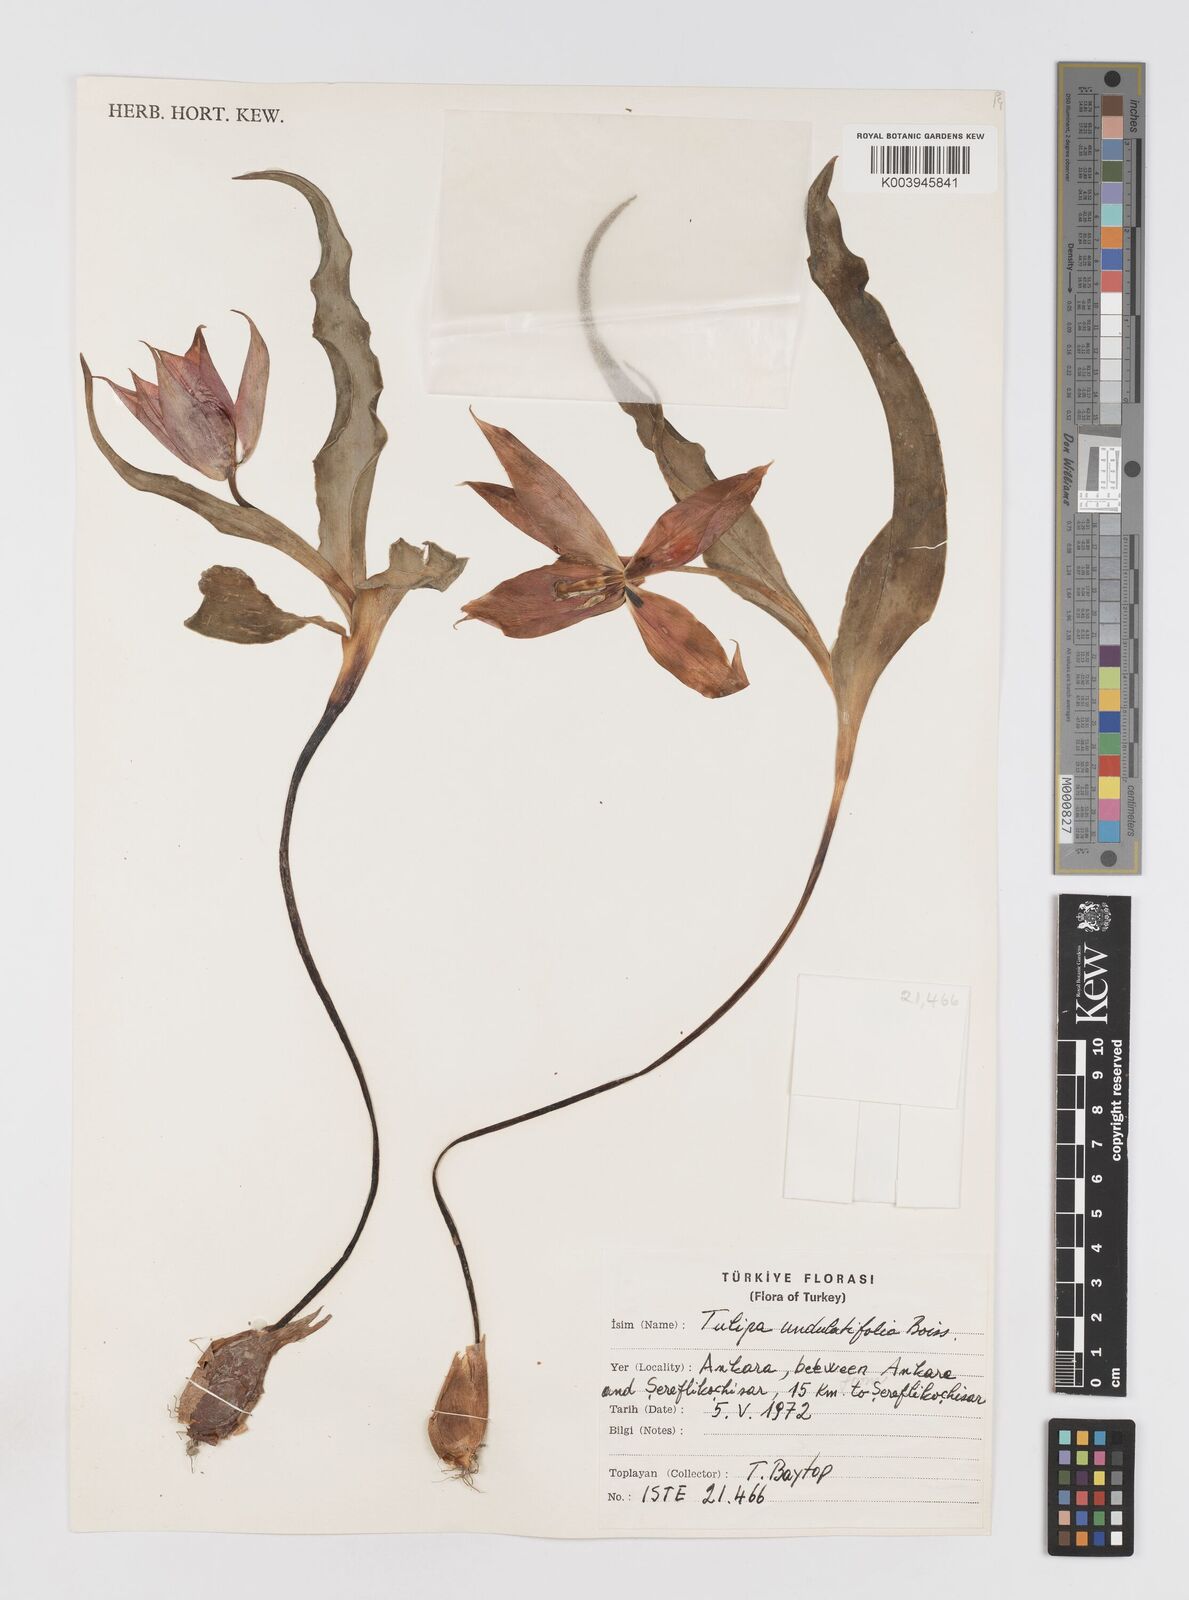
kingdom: Plantae
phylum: Tracheophyta
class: Liliopsida
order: Liliales
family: Liliaceae
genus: Tulipa
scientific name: Tulipa undulatifolia
